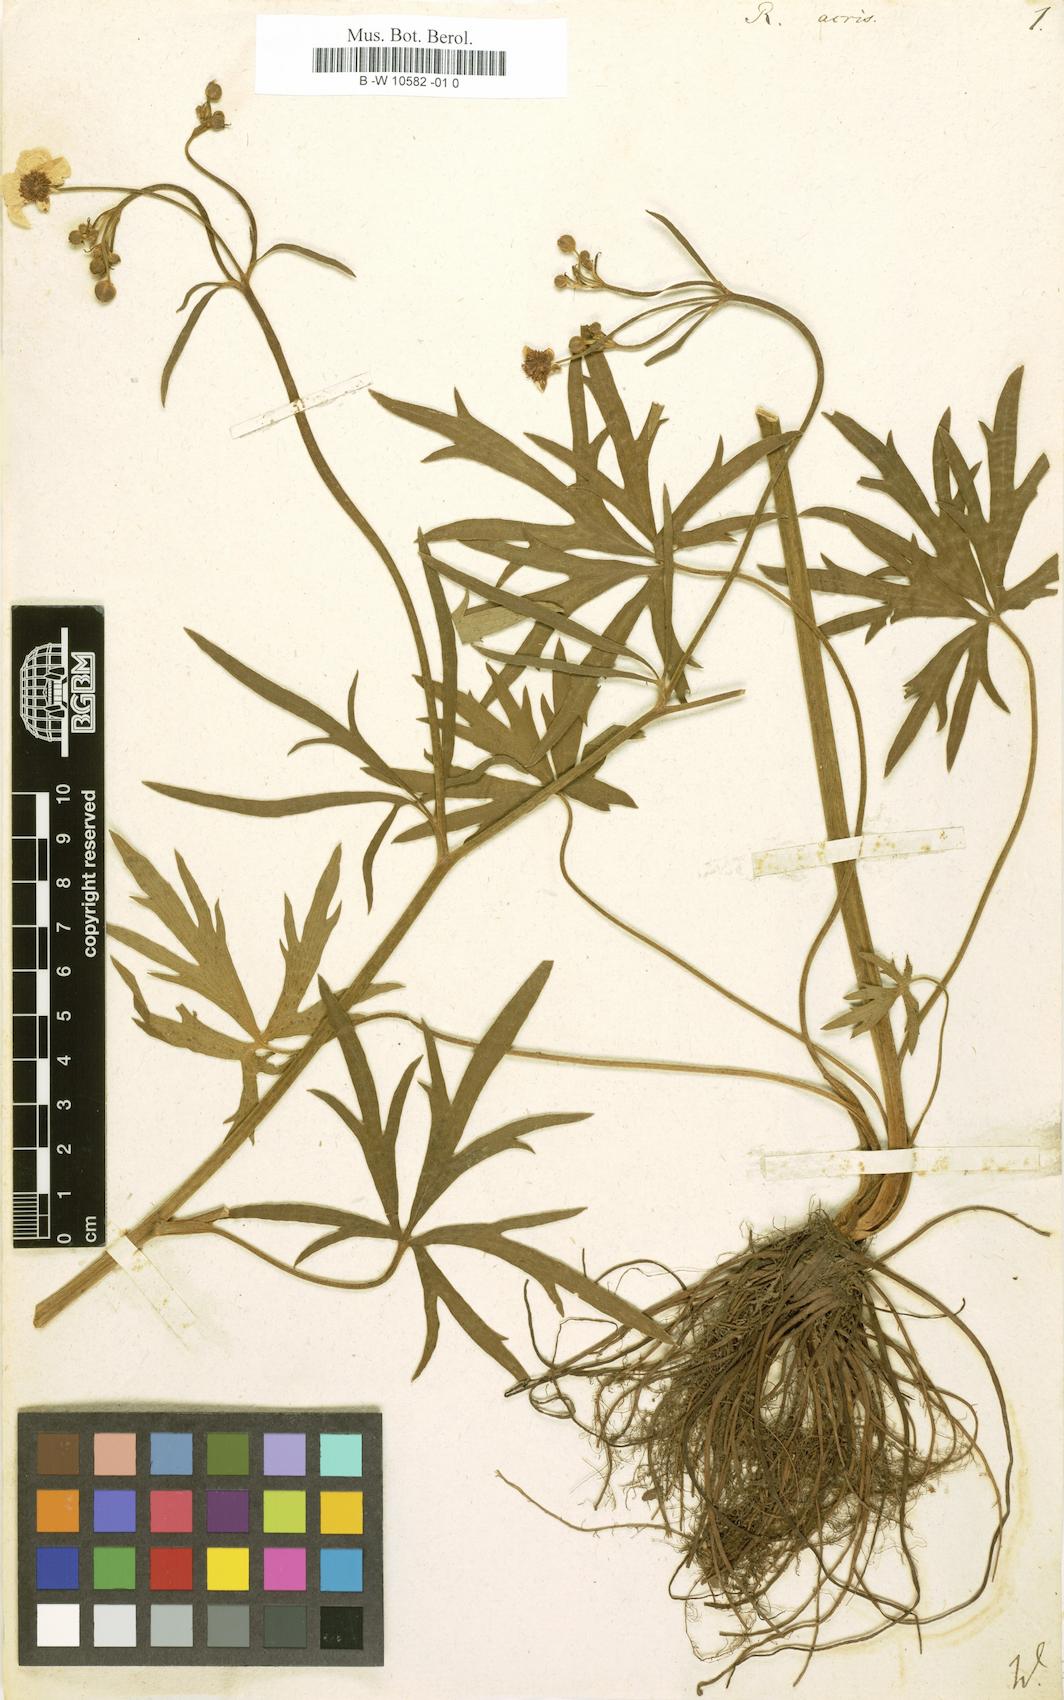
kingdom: Plantae
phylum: Tracheophyta
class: Magnoliopsida
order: Ranunculales
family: Ranunculaceae
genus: Ranunculus
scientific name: Ranunculus acris
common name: Meadow buttercup
